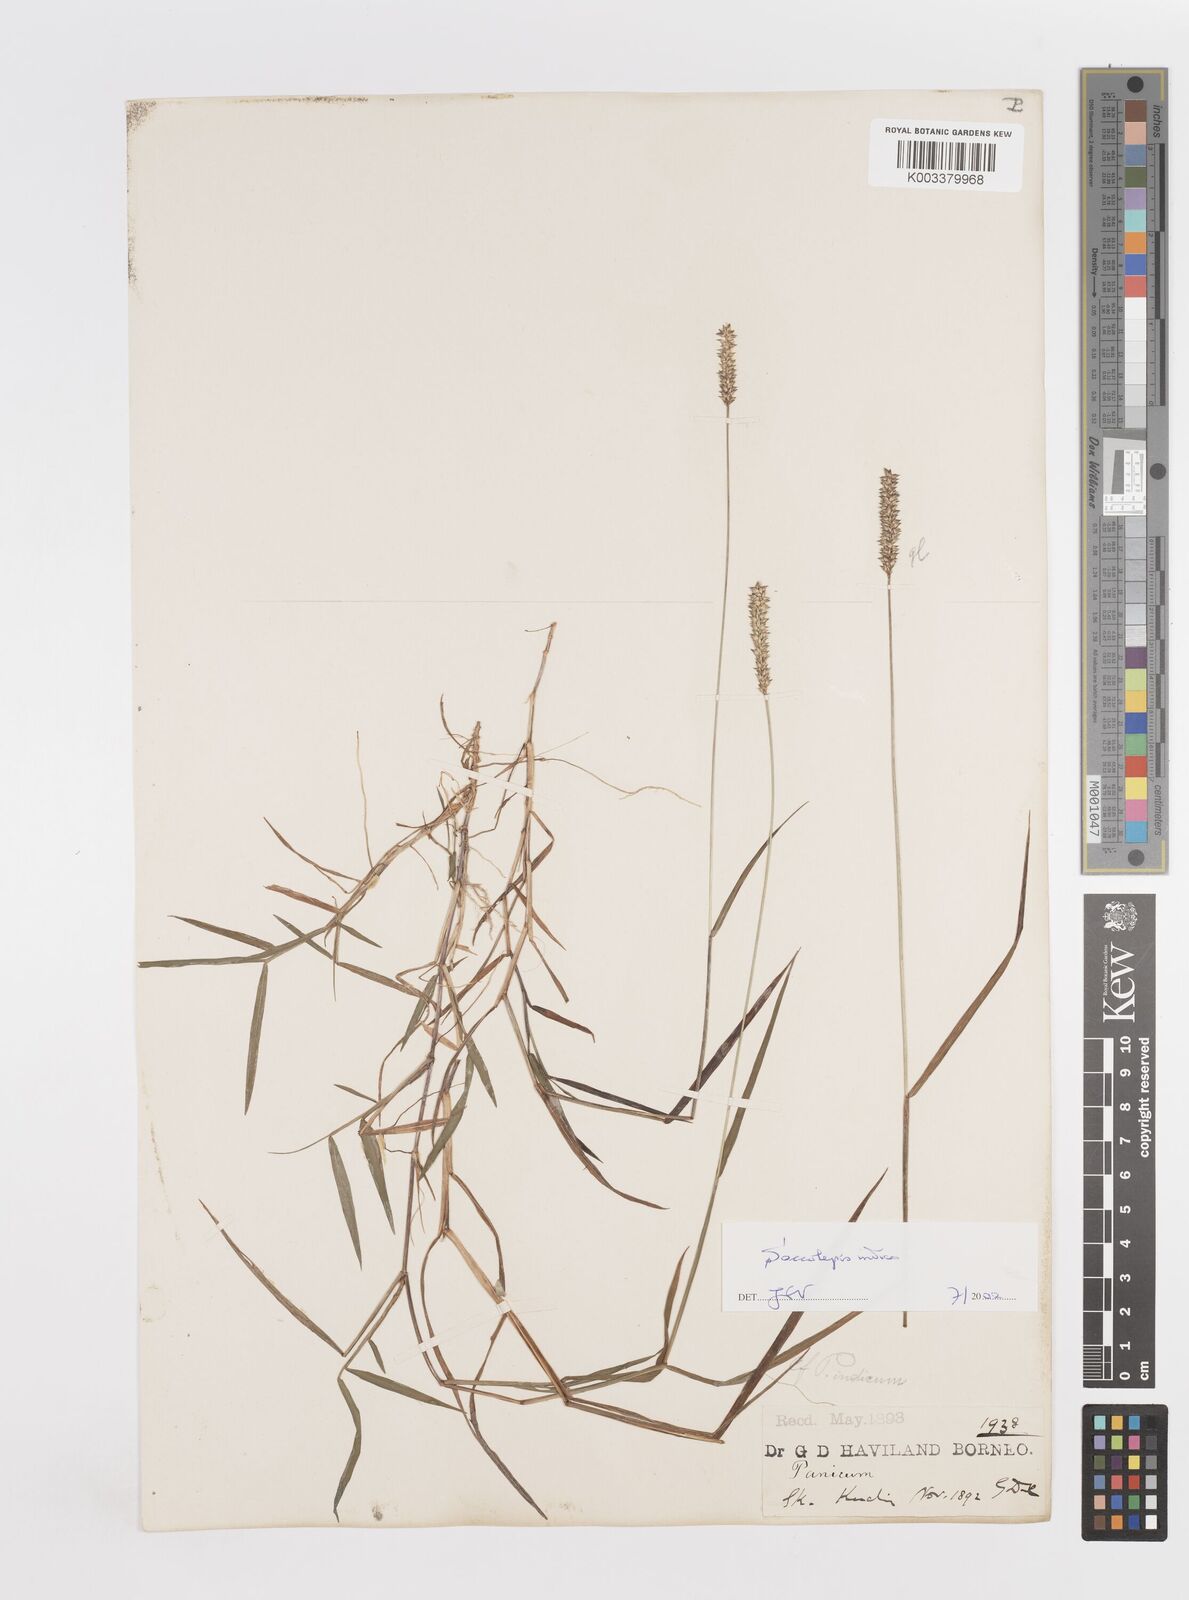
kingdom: Plantae
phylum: Tracheophyta
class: Liliopsida
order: Poales
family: Poaceae
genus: Sacciolepis
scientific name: Sacciolepis indica
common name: Glenwoodgrass
